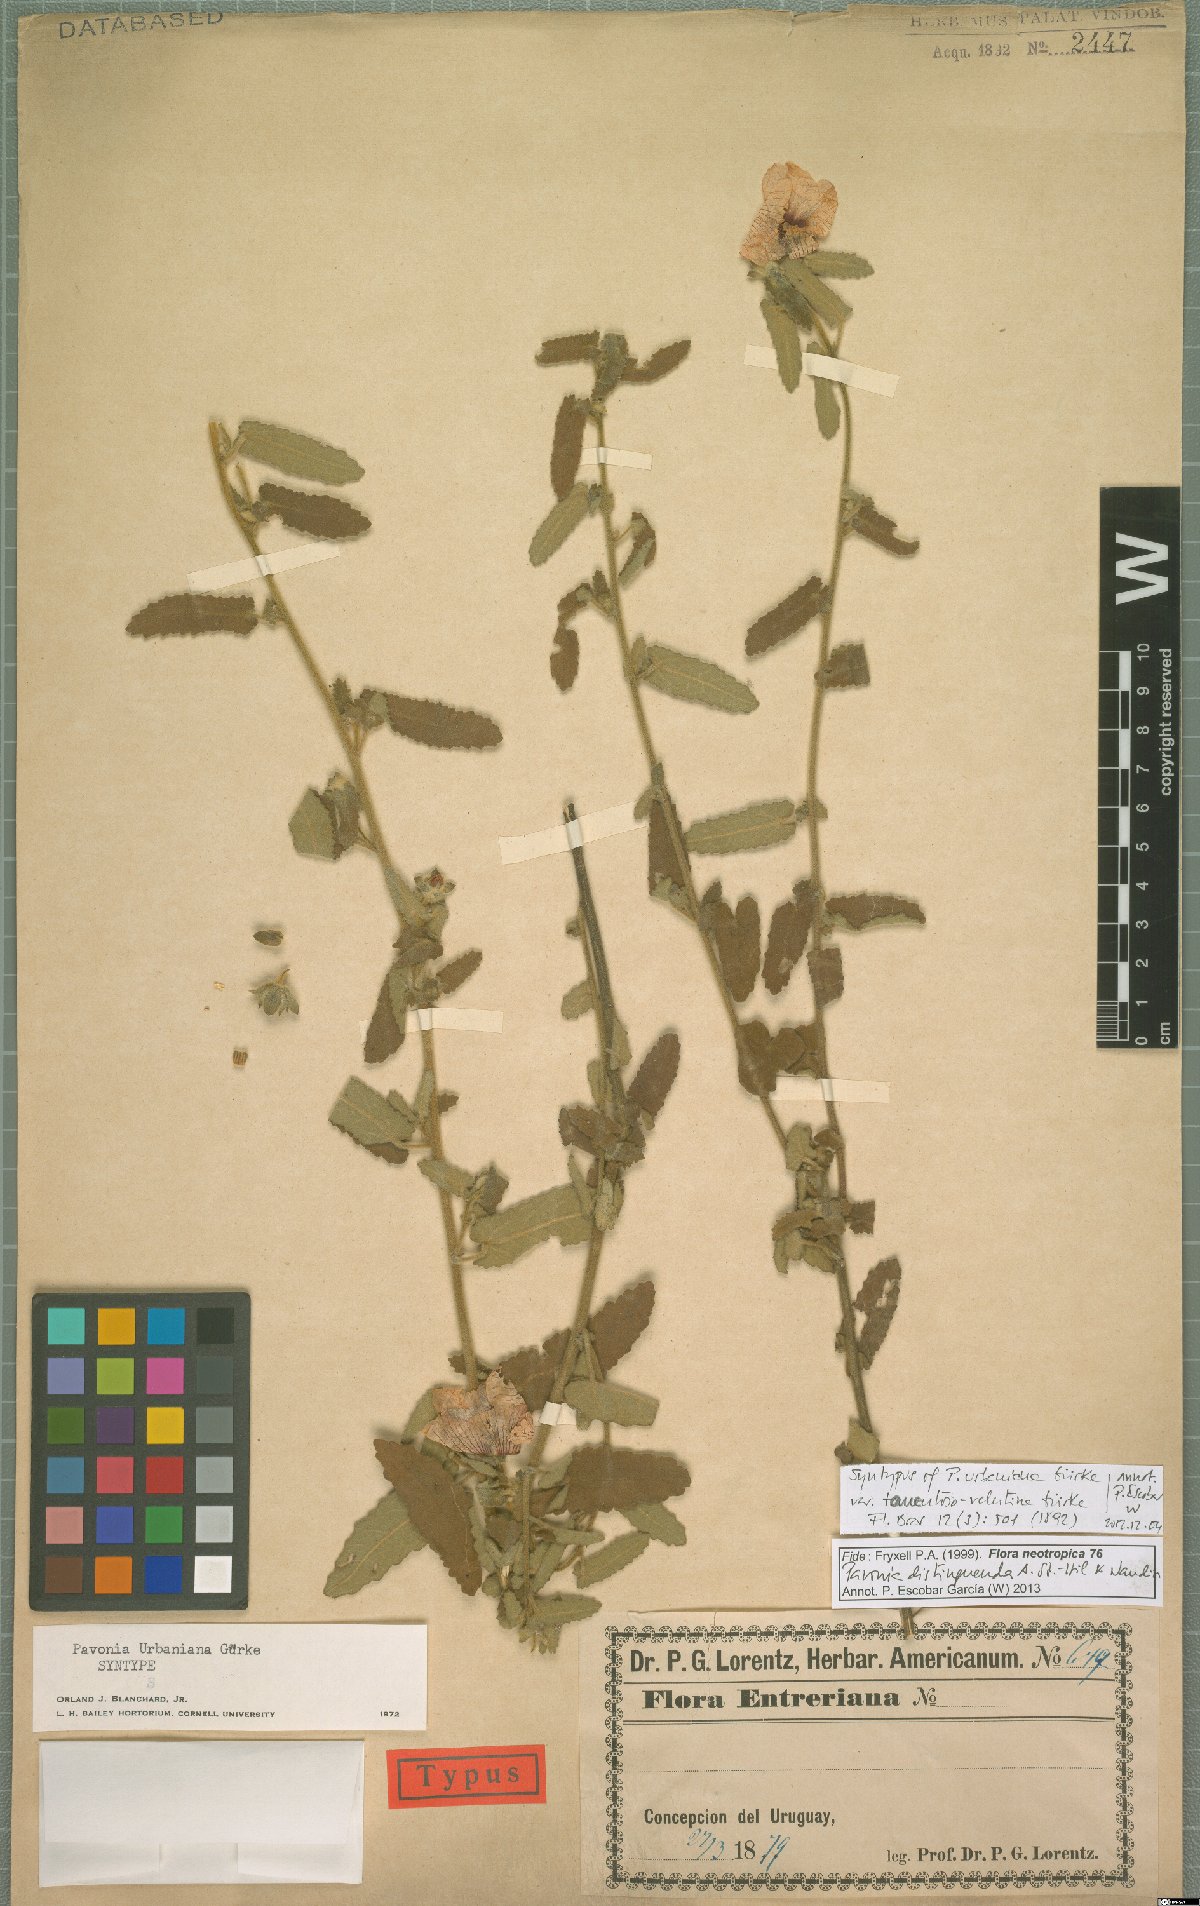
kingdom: Plantae
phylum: Tracheophyta
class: Magnoliopsida
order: Malvales
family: Malvaceae
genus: Pavonia
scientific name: Pavonia distinguenda
